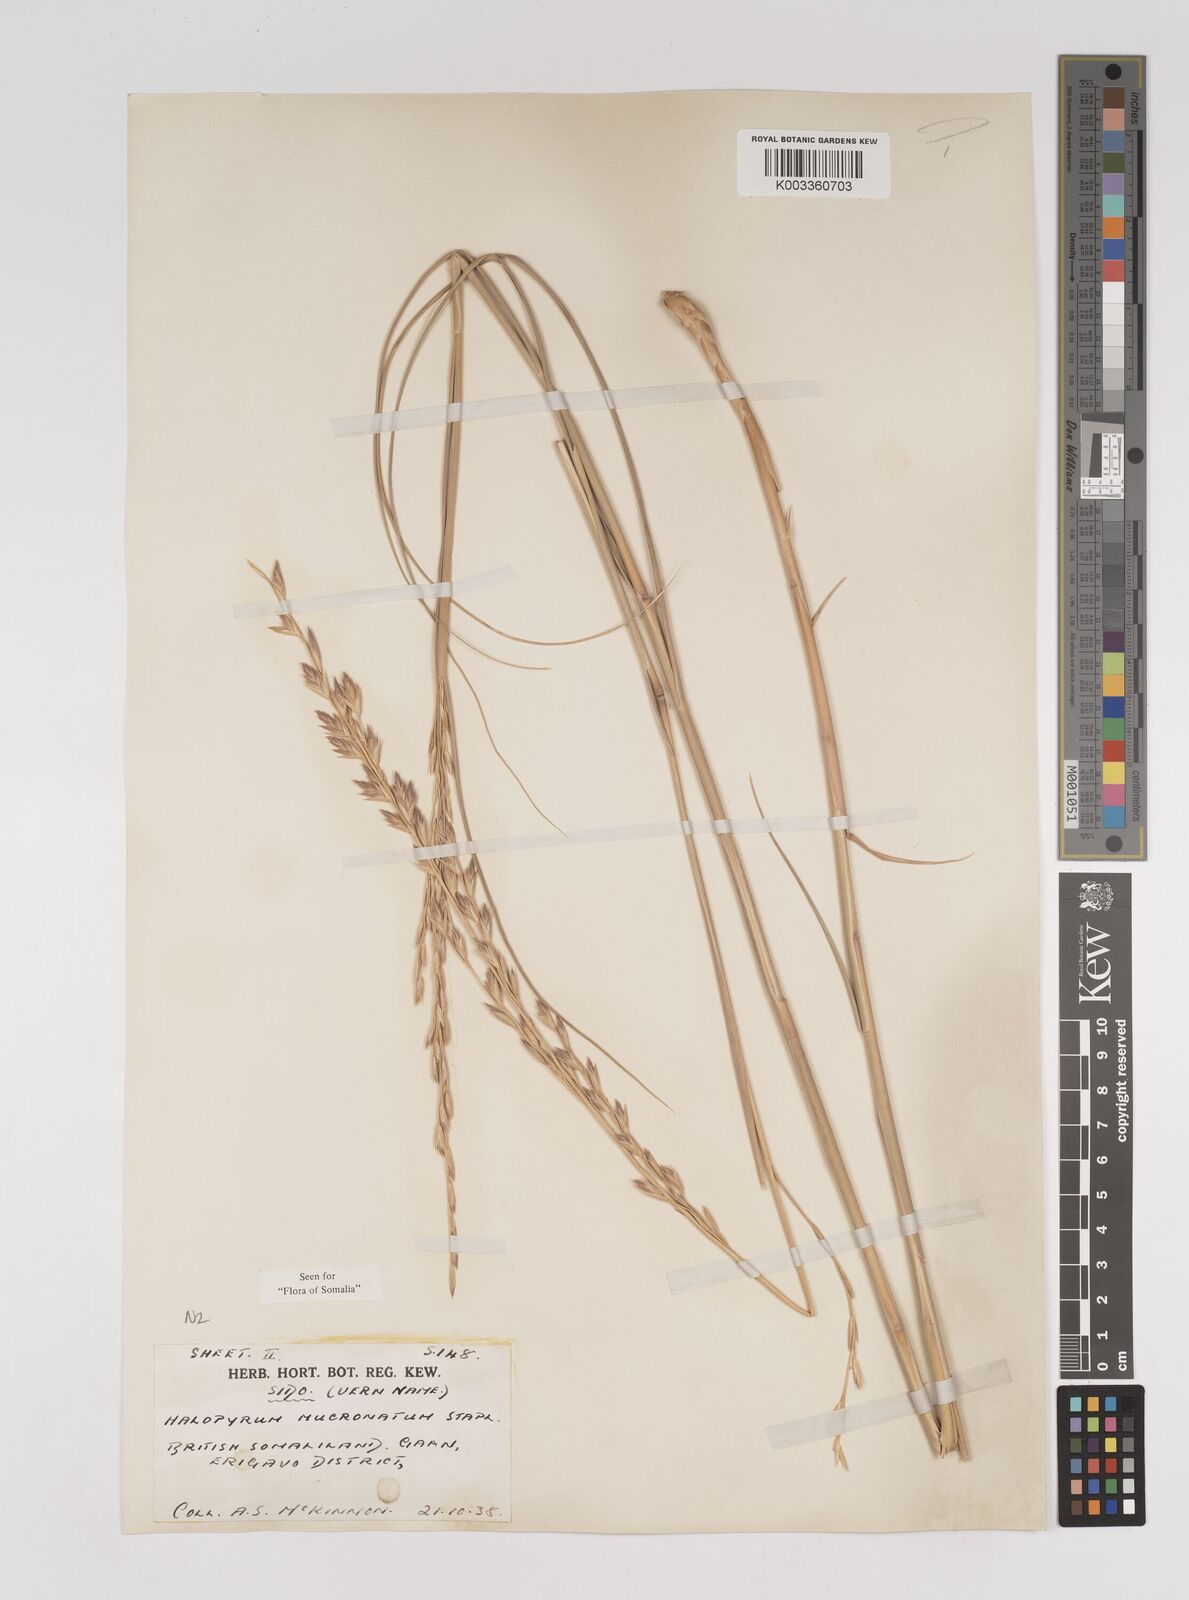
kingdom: Plantae
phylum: Tracheophyta
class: Liliopsida
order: Poales
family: Poaceae
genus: Halopyrum
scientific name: Halopyrum mucronatum
